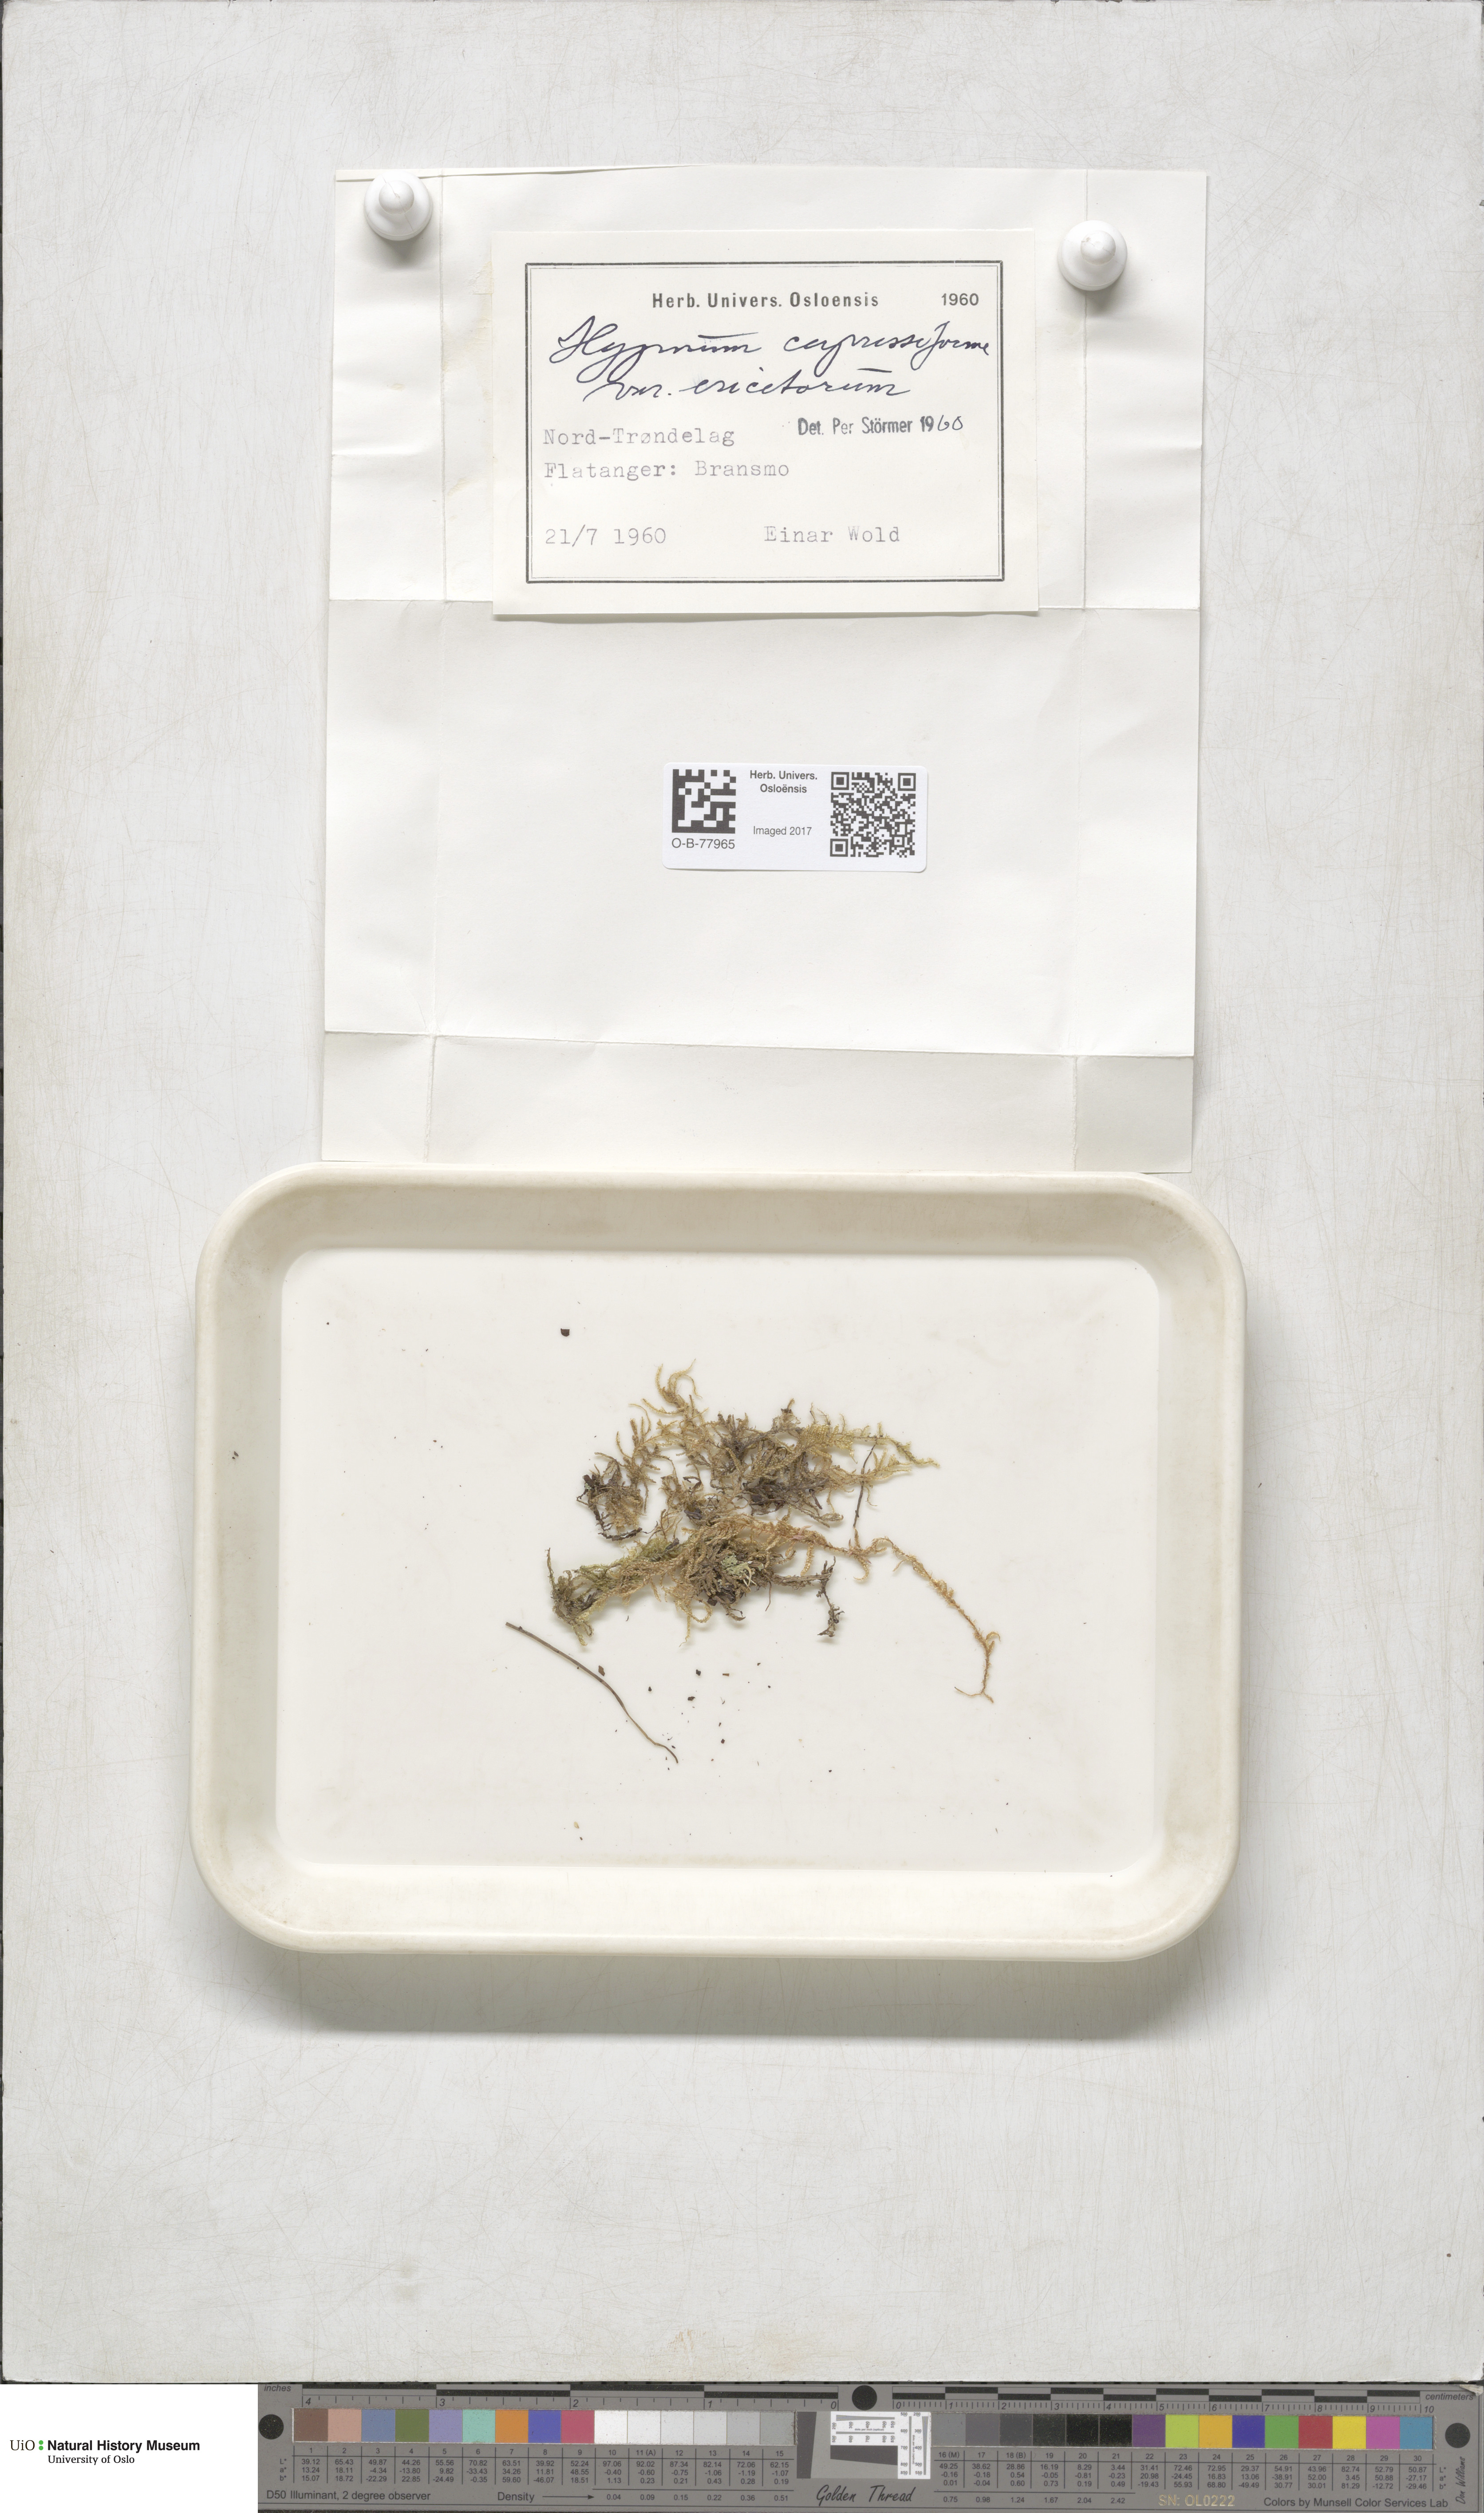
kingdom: Plantae
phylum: Bryophyta
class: Bryopsida
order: Hypnales
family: Hypnaceae
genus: Hypnum
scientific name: Hypnum jutlandicum
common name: Heath plait-moss
